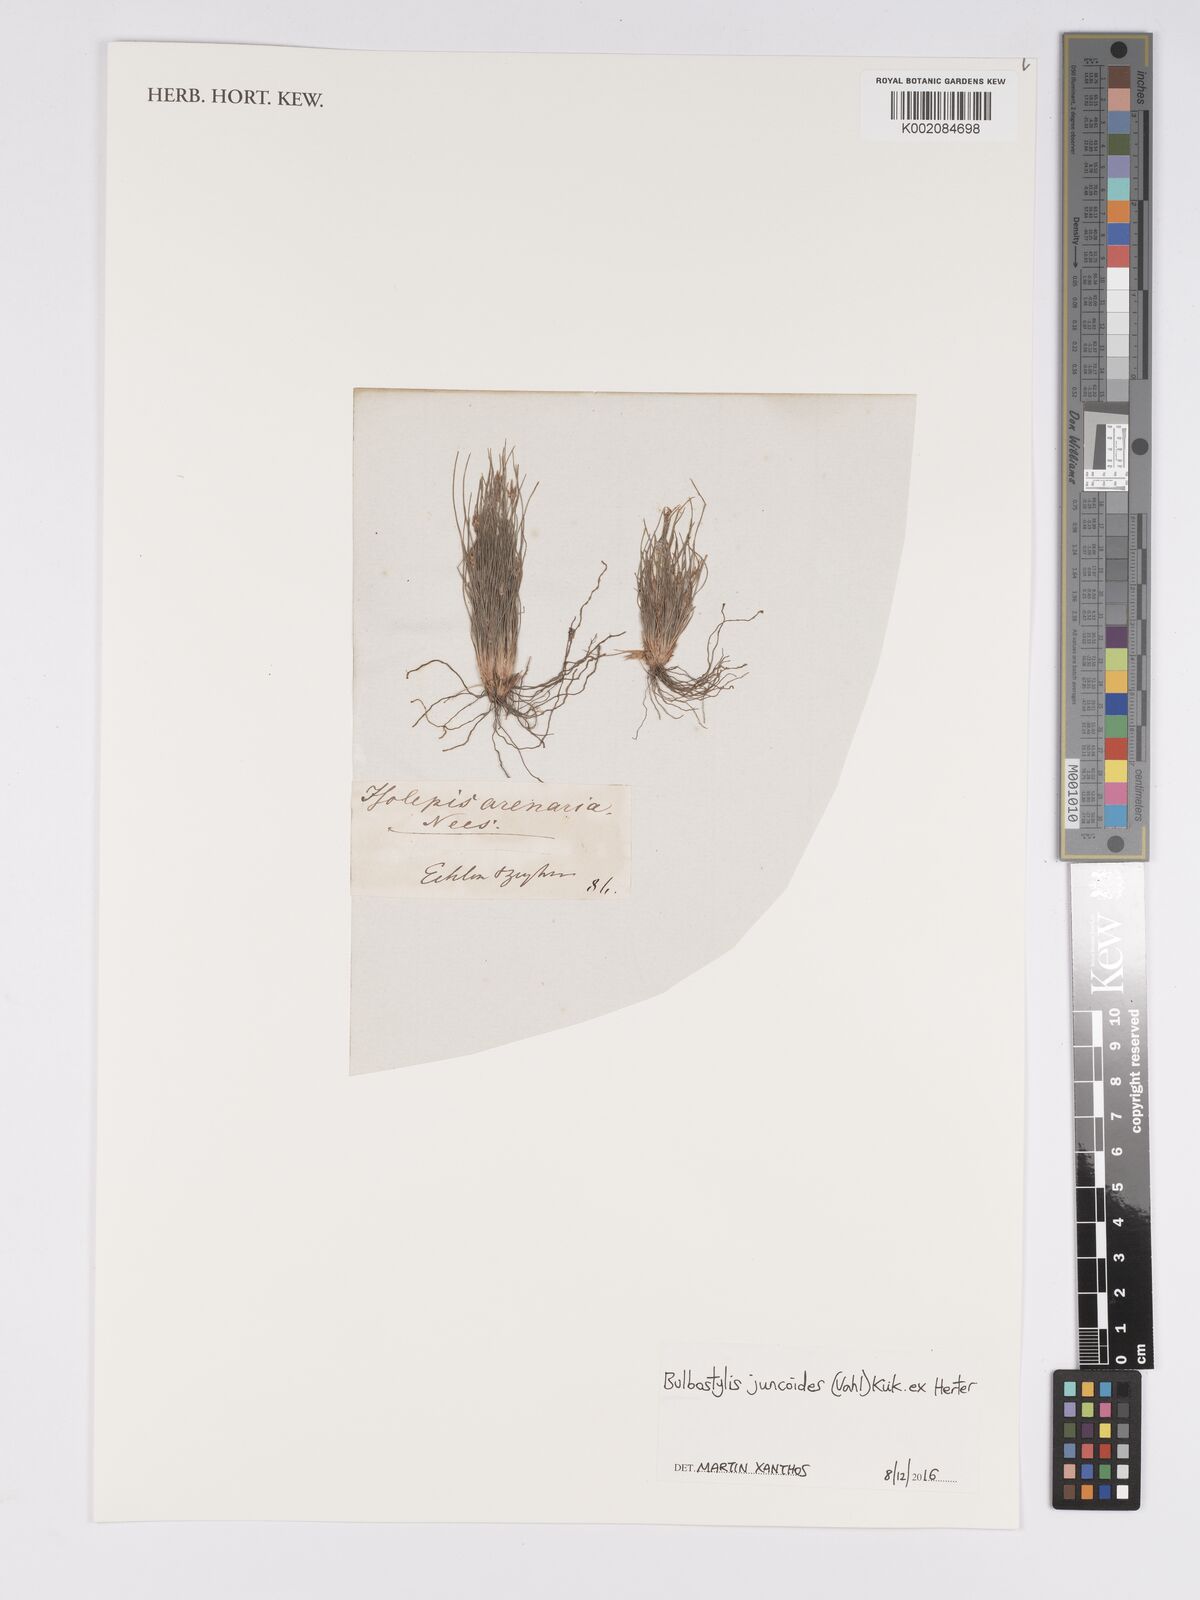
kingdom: Plantae
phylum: Tracheophyta
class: Liliopsida
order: Poales
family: Cyperaceae
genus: Bulbostylis
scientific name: Bulbostylis juncoides
